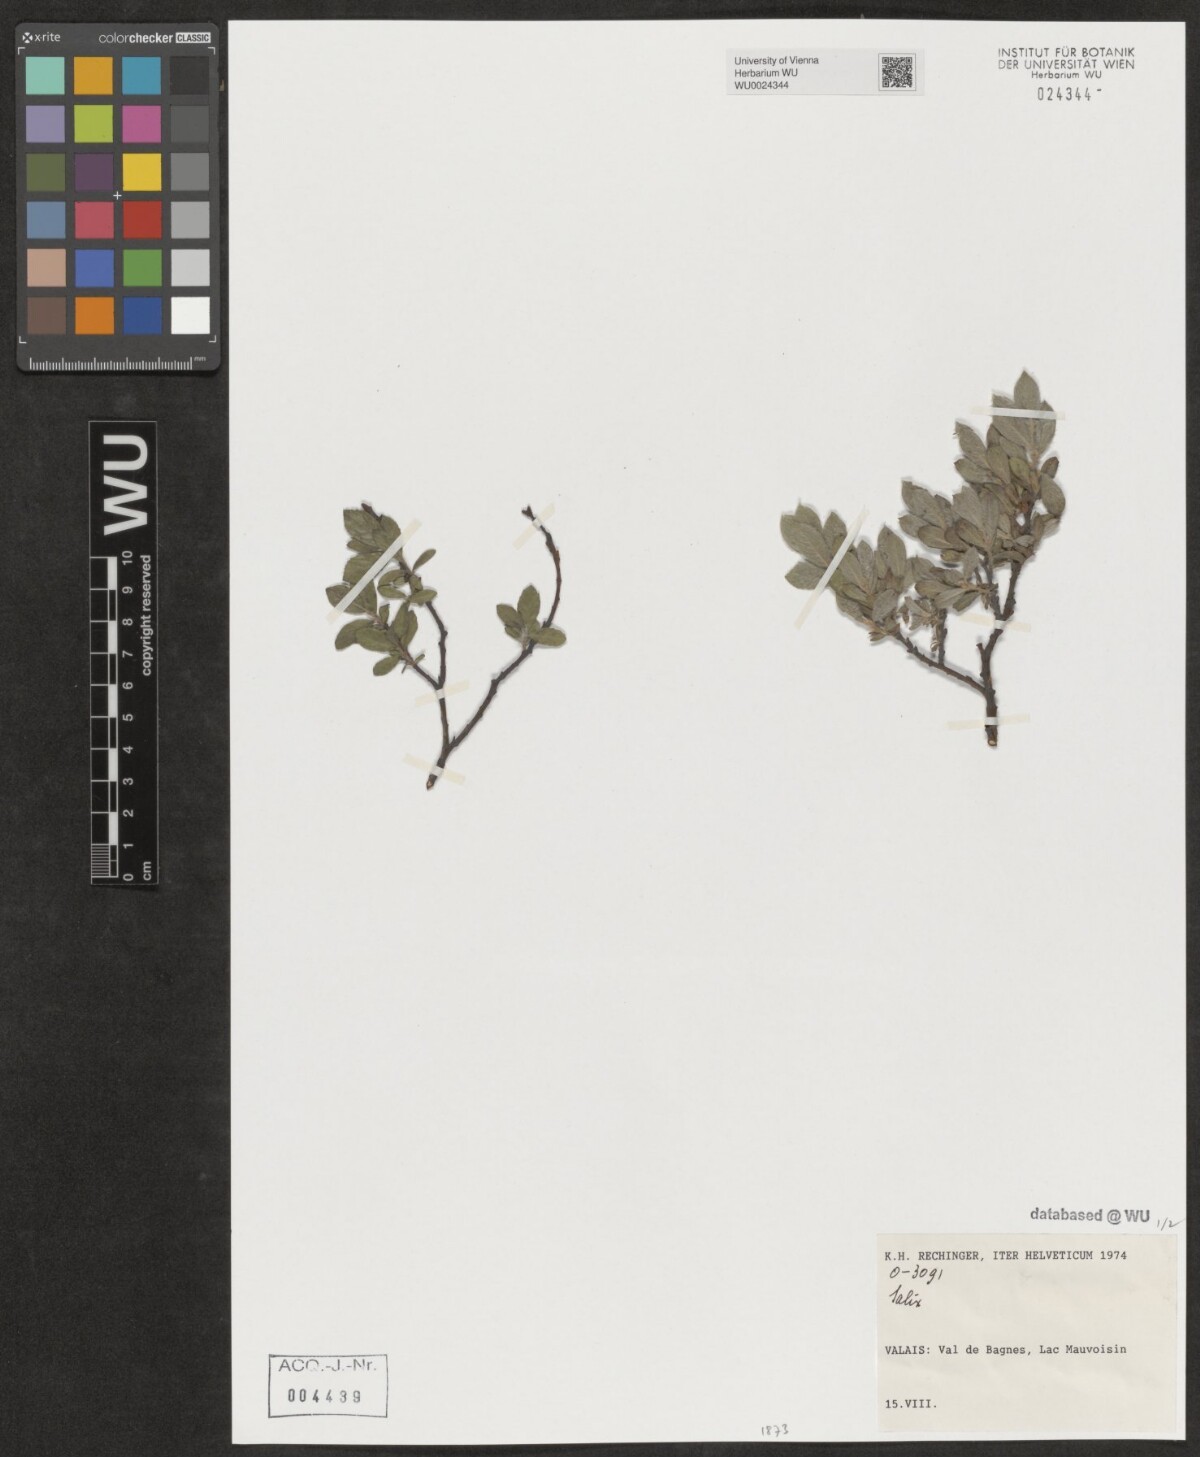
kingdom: Plantae
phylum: Tracheophyta
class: Magnoliopsida
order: Malpighiales
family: Salicaceae
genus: Salix
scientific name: Salix
